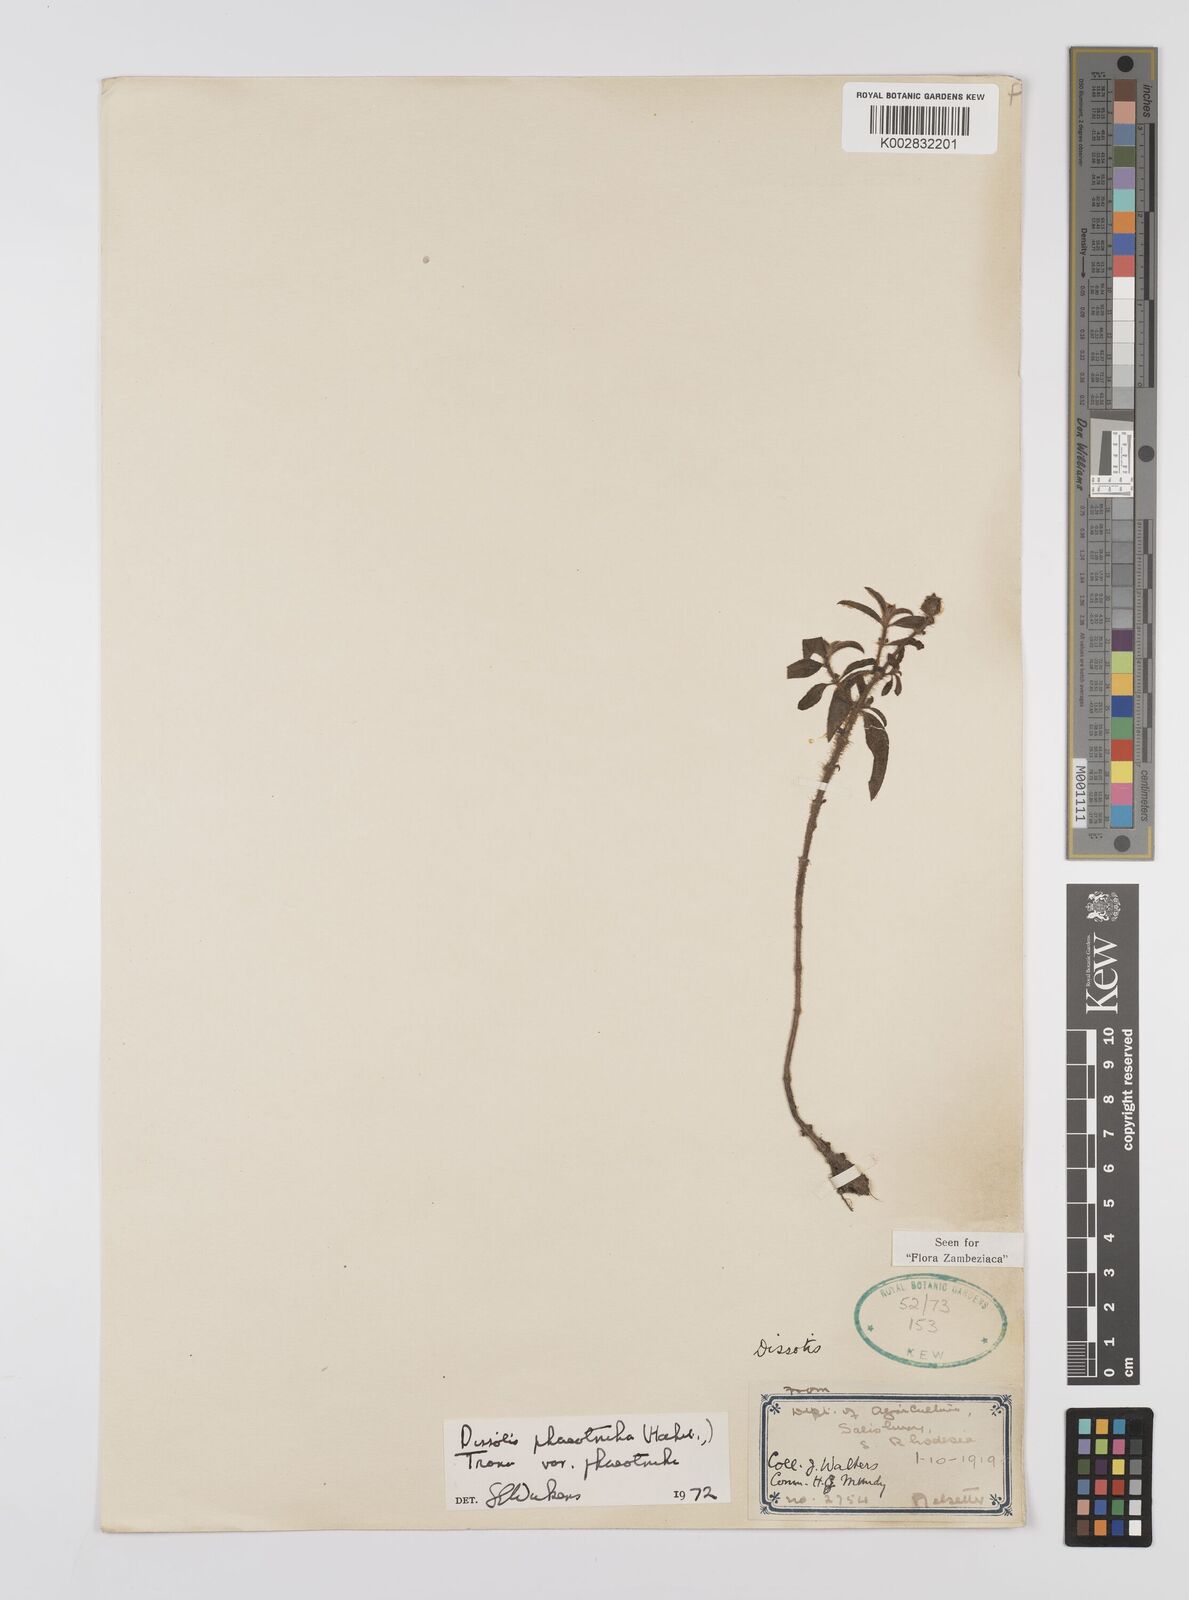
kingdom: Plantae
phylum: Tracheophyta
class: Magnoliopsida
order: Myrtales
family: Melastomataceae
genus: Antherotoma
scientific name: Antherotoma phaeotricha
